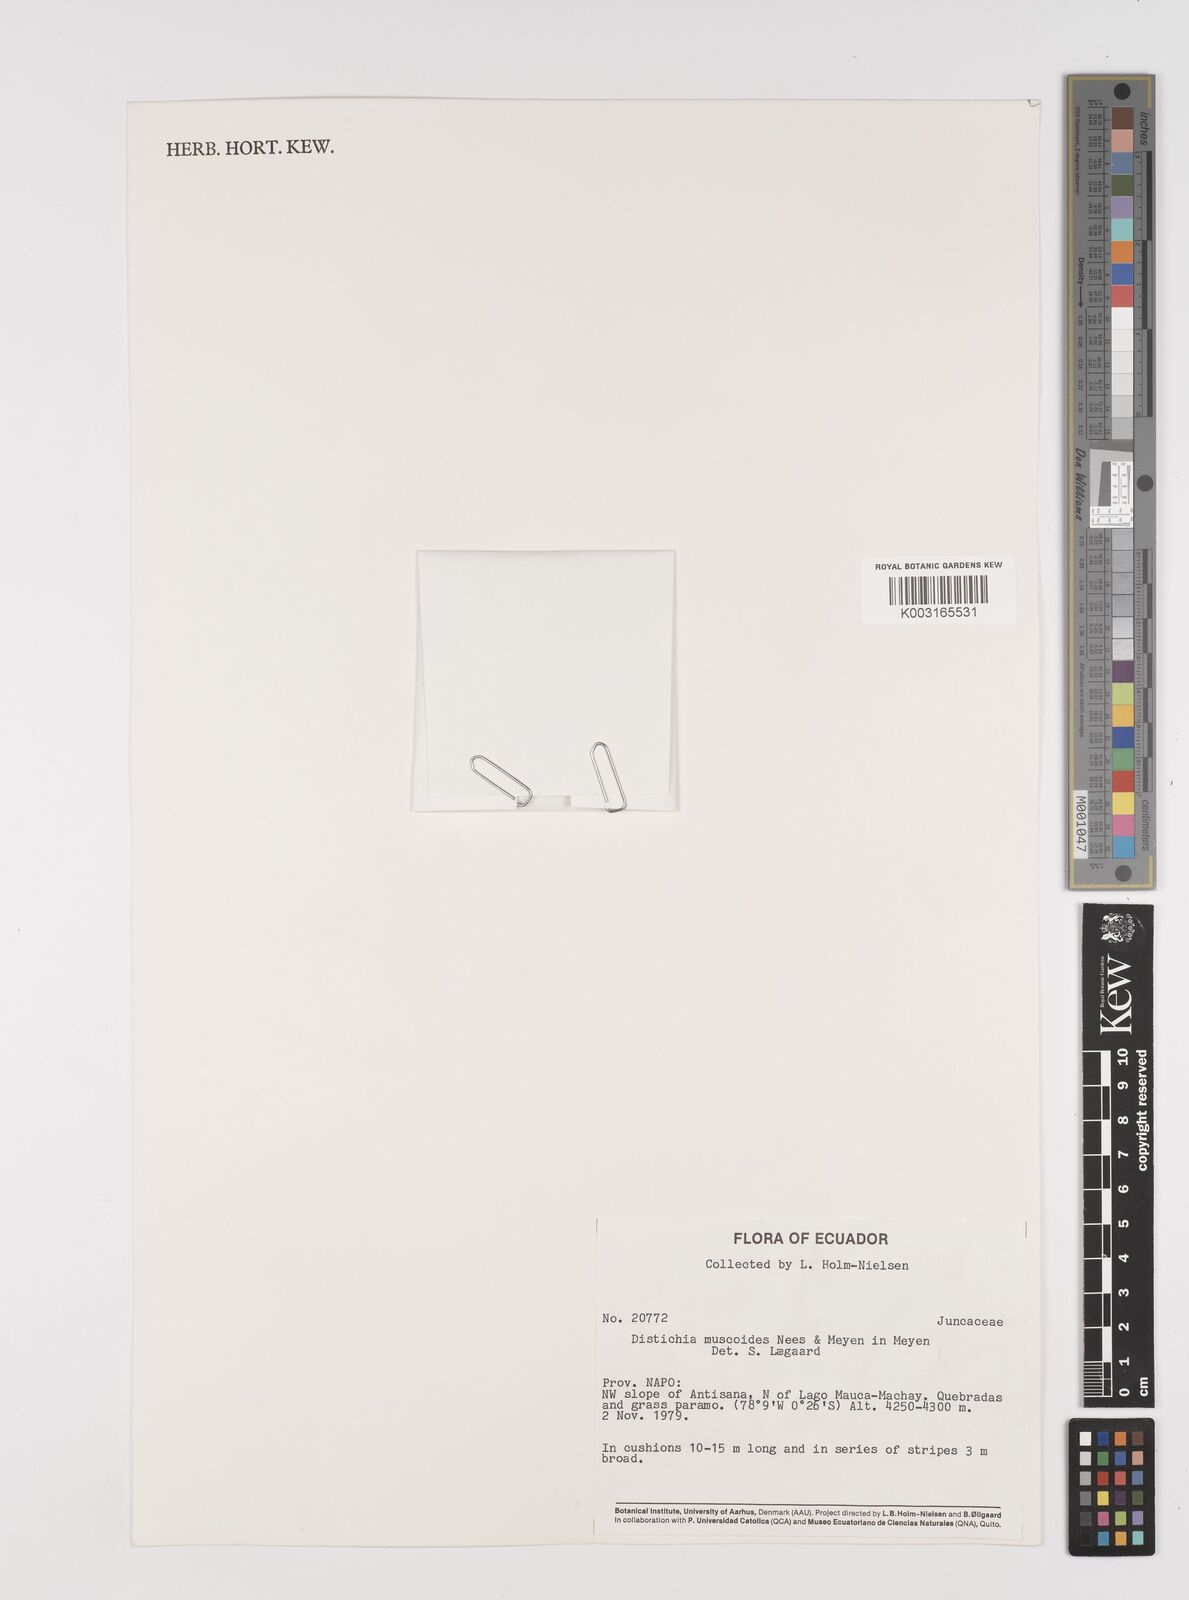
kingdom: Plantae
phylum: Tracheophyta
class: Liliopsida
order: Poales
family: Juncaceae
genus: Distichia
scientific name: Distichia muscoides
